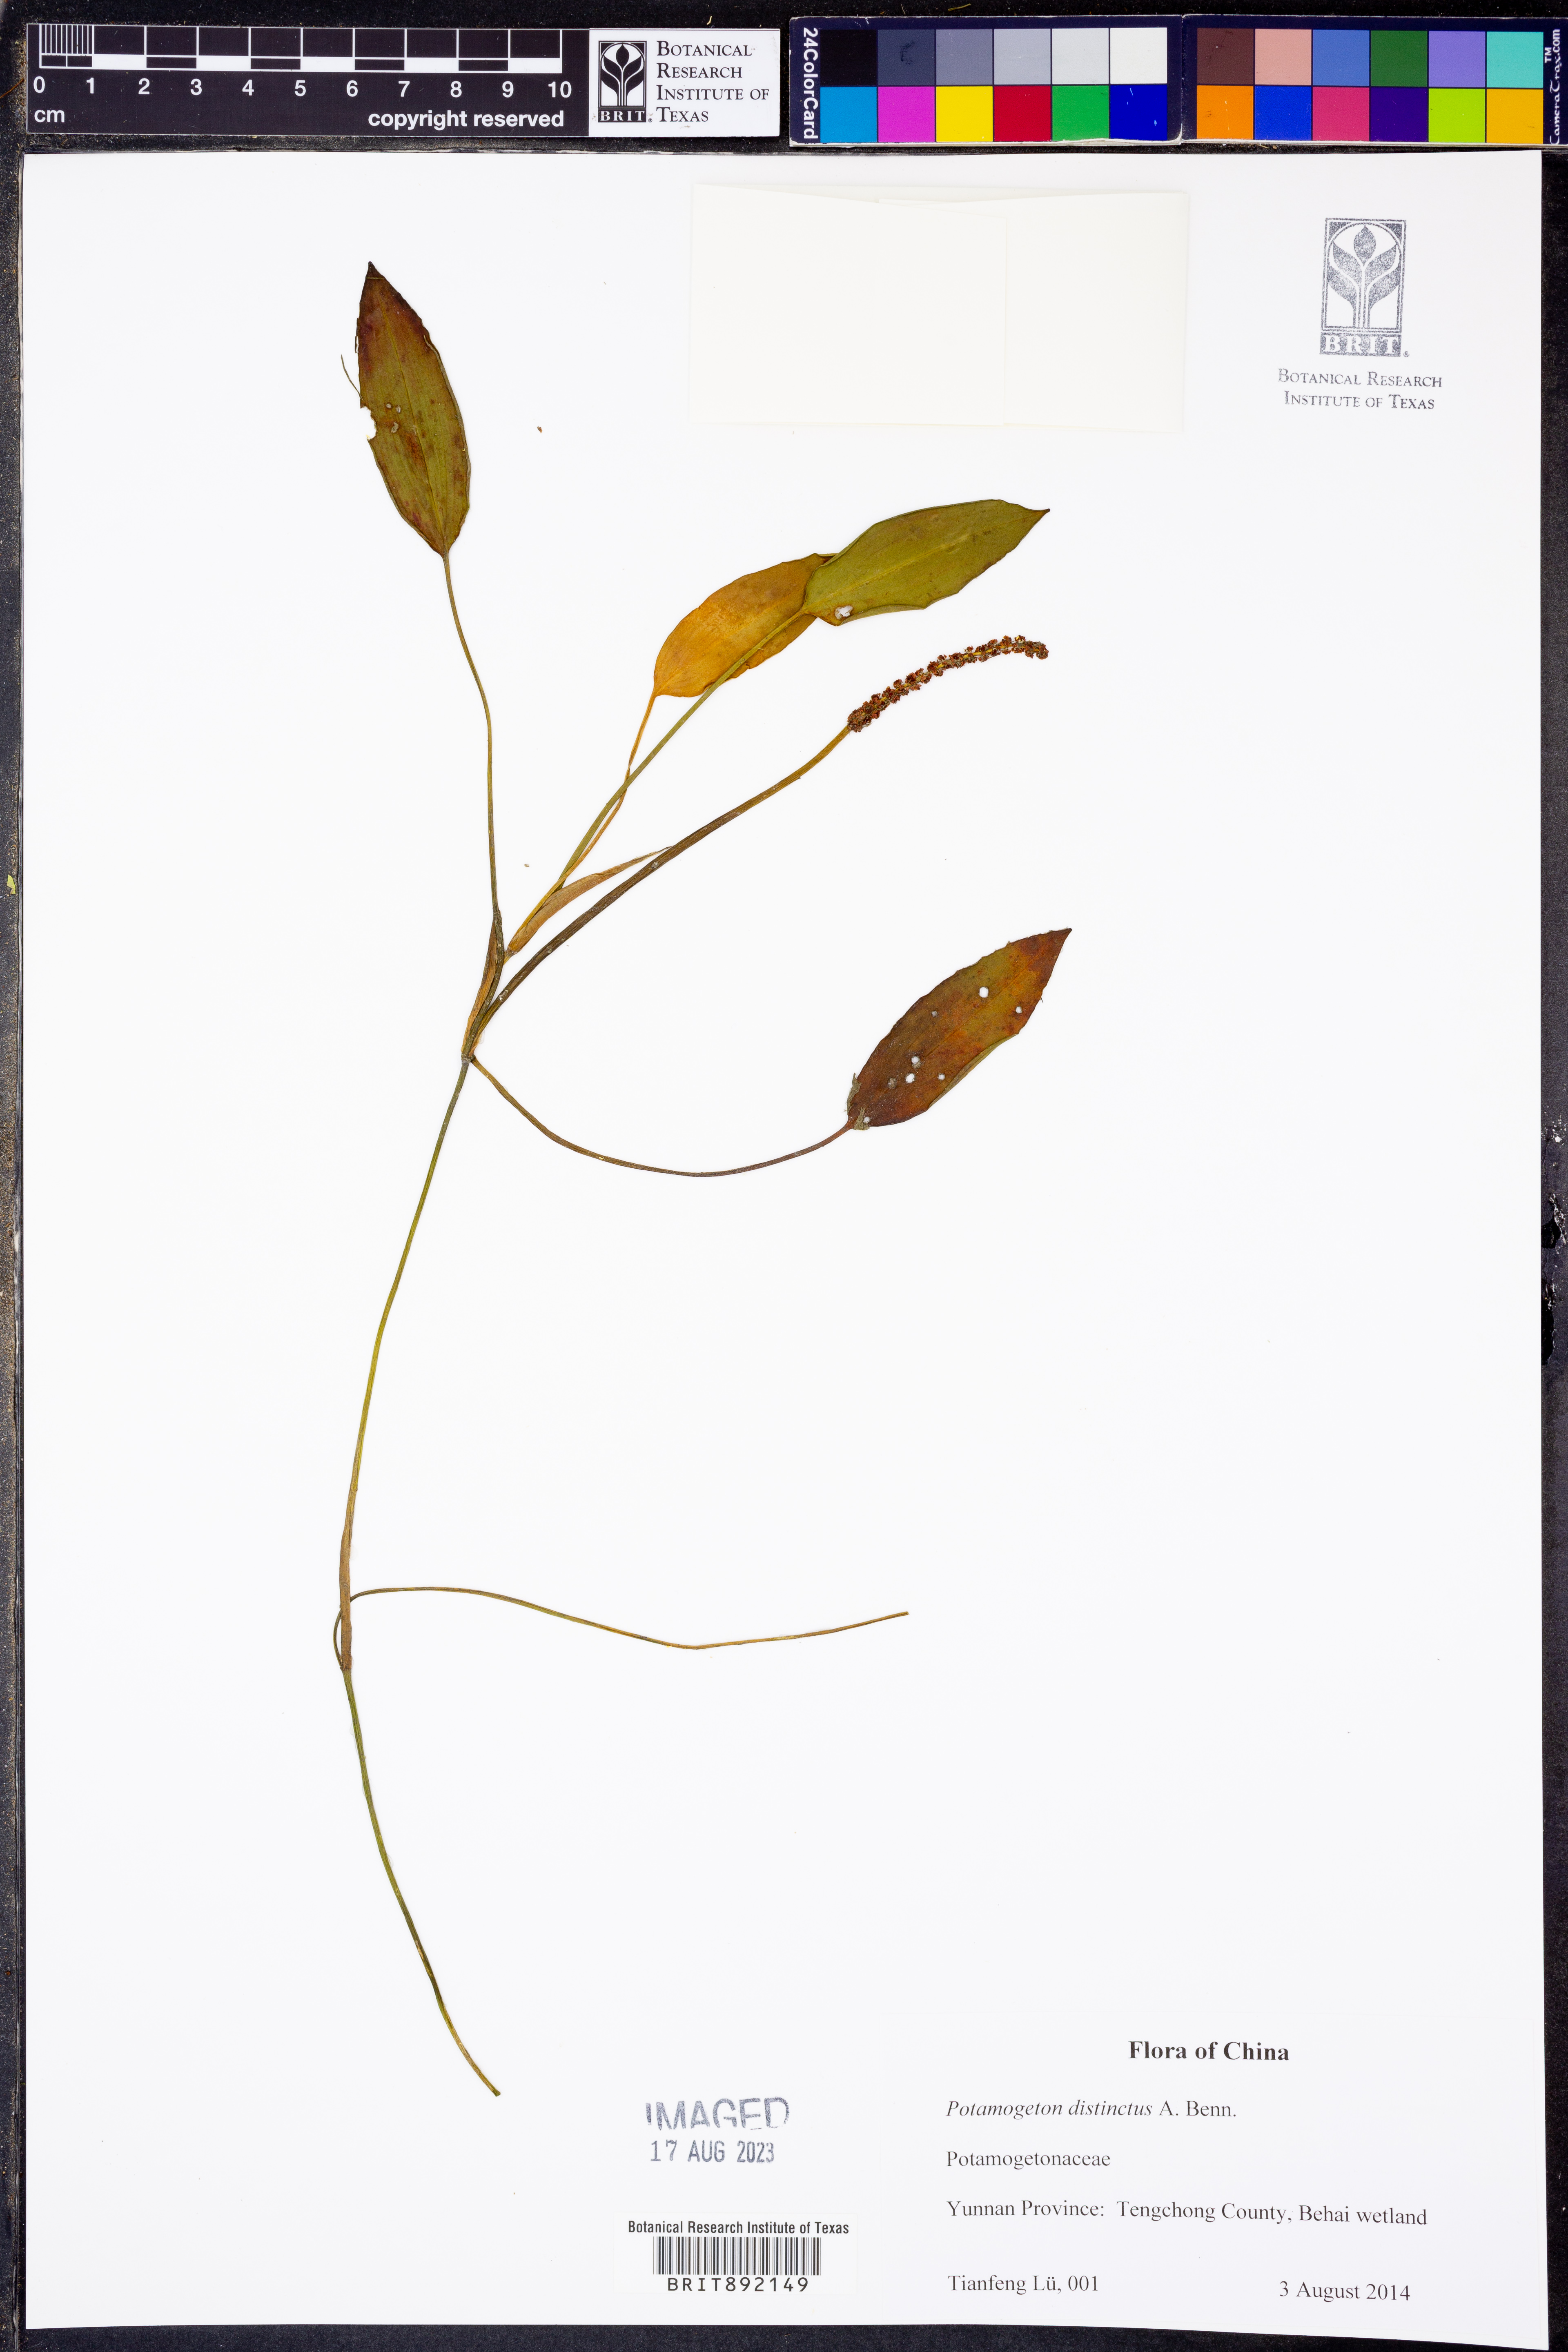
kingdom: Plantae
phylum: Tracheophyta
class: Liliopsida
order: Alismatales
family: Potamogetonaceae
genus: Potamogeton
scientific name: Potamogeton distinctus
